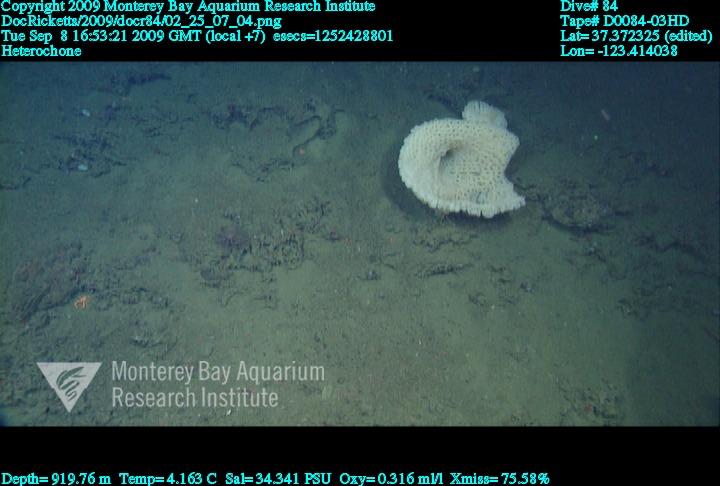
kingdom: Animalia
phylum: Porifera
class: Hexactinellida
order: Sceptrulophora
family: Aphrocallistidae
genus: Heterochone
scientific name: Heterochone
